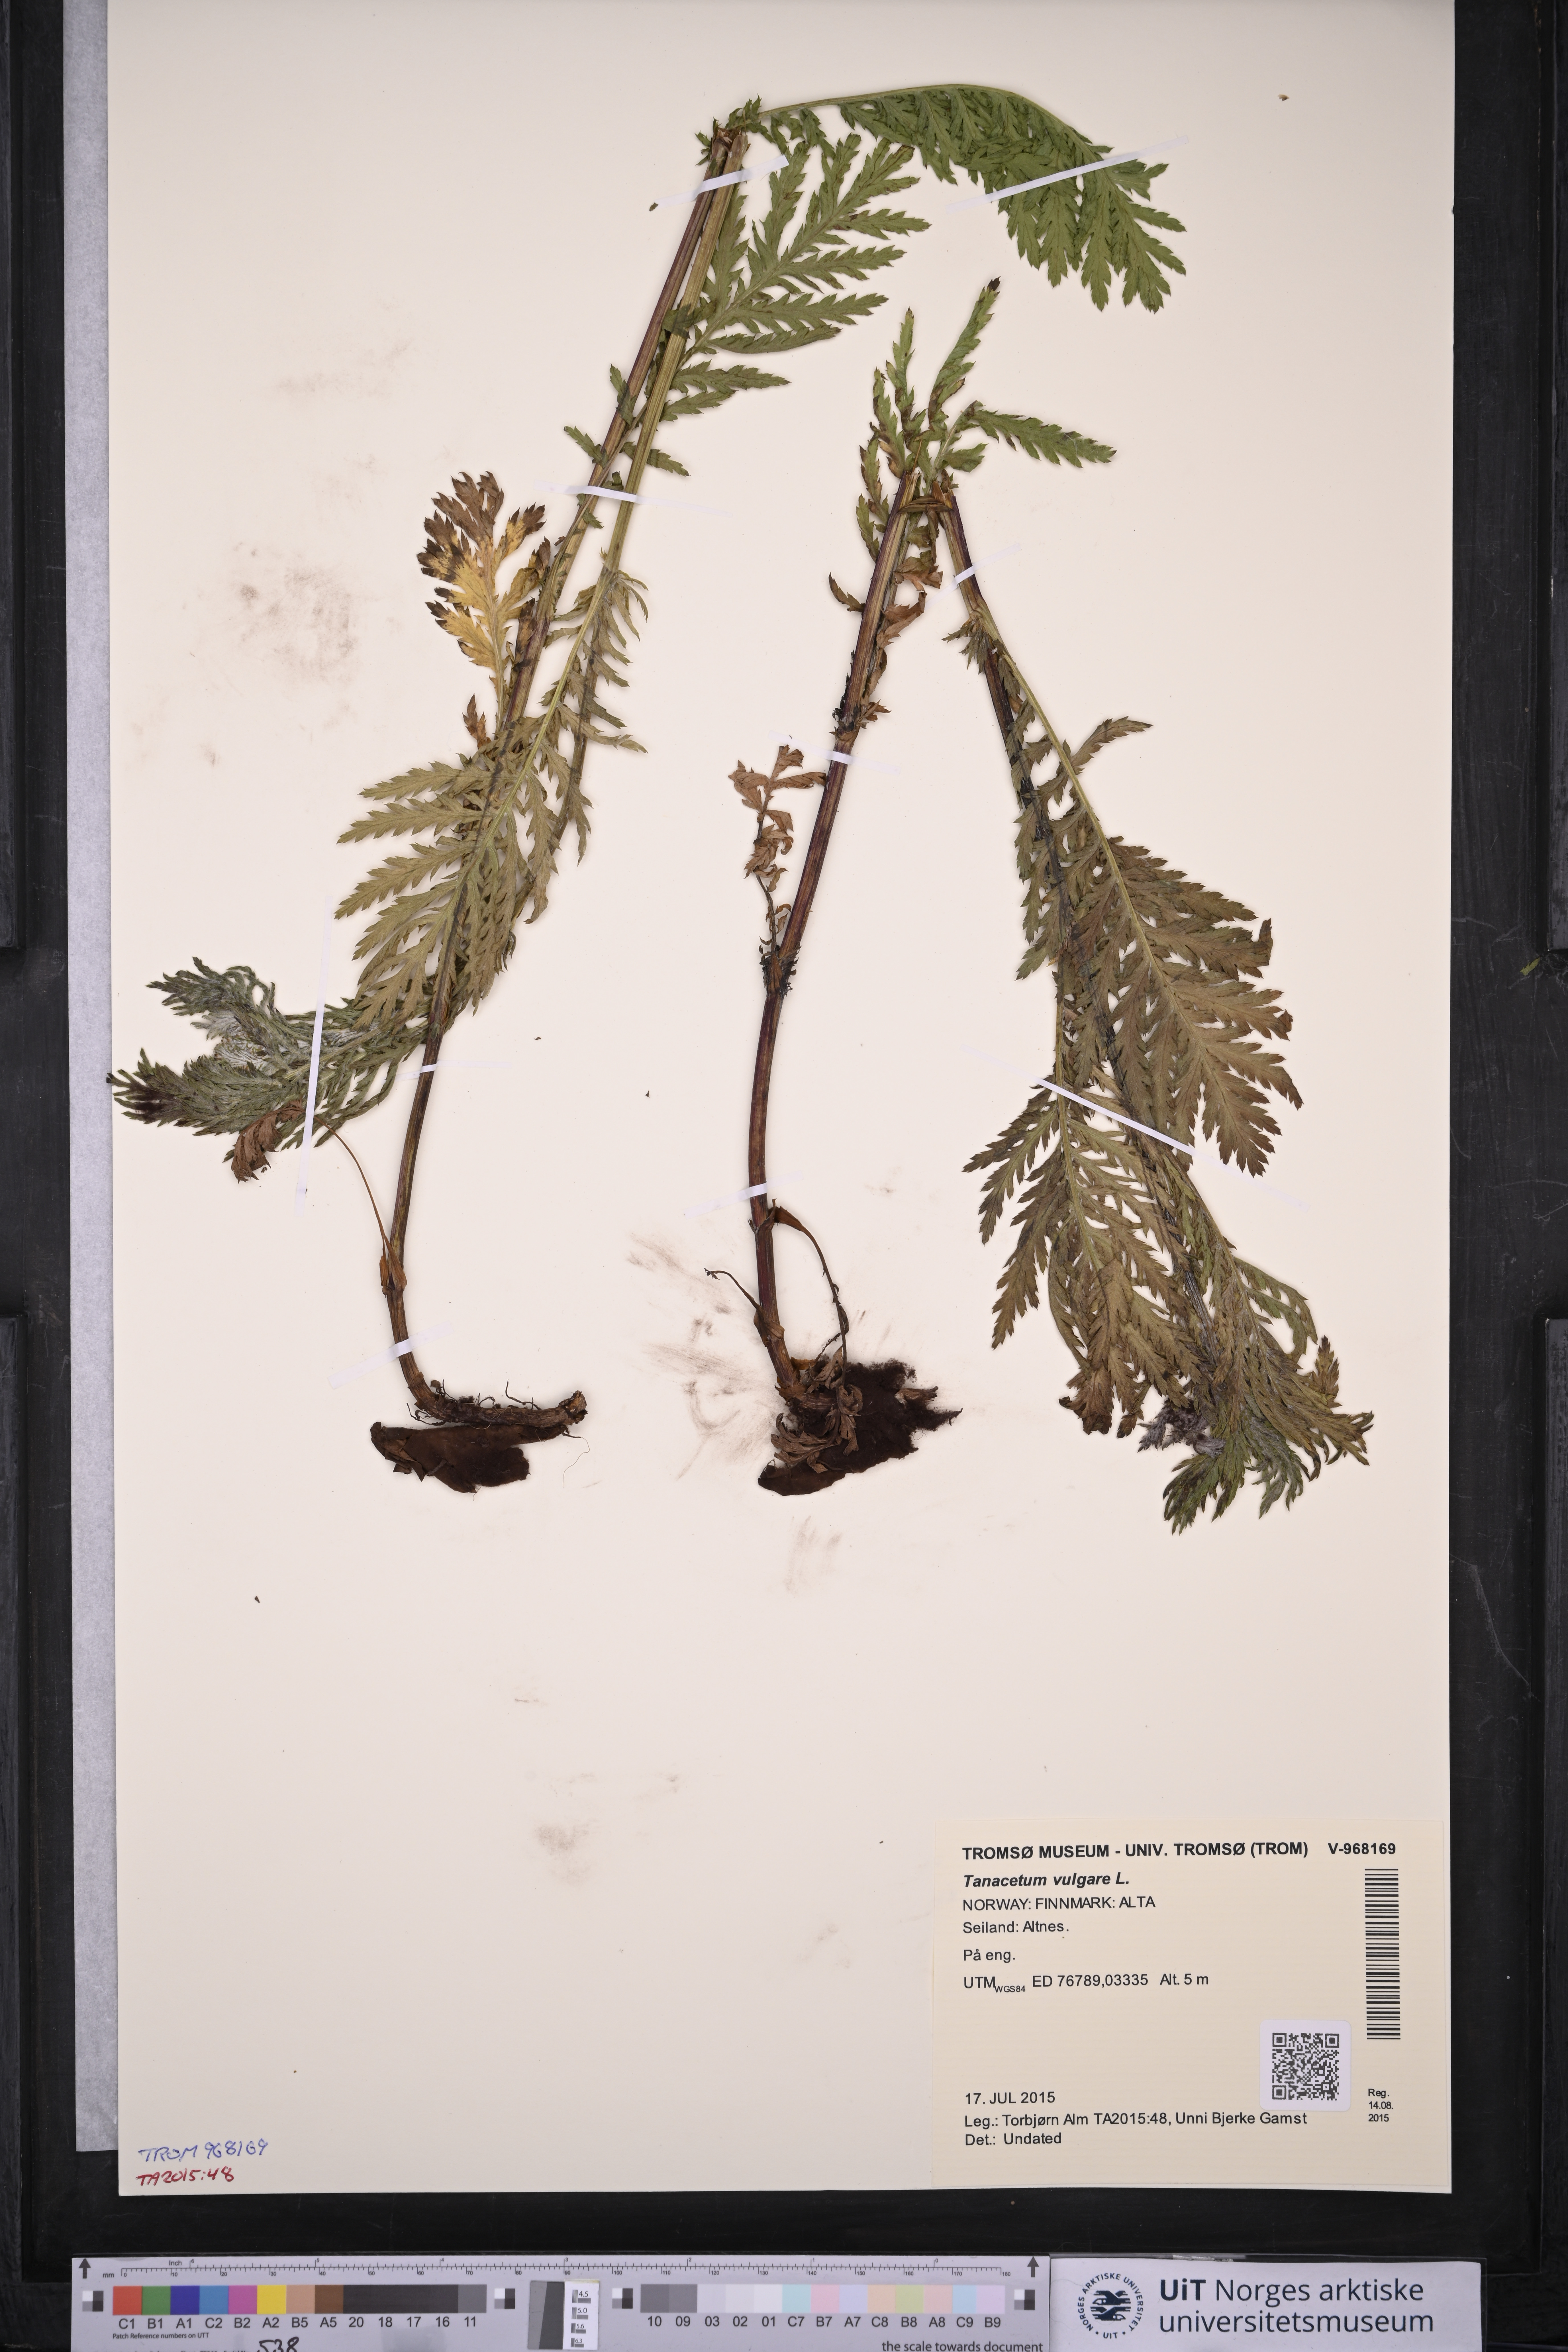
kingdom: Plantae
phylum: Tracheophyta
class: Magnoliopsida
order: Asterales
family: Asteraceae
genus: Tanacetum
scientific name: Tanacetum vulgare
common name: Common tansy
